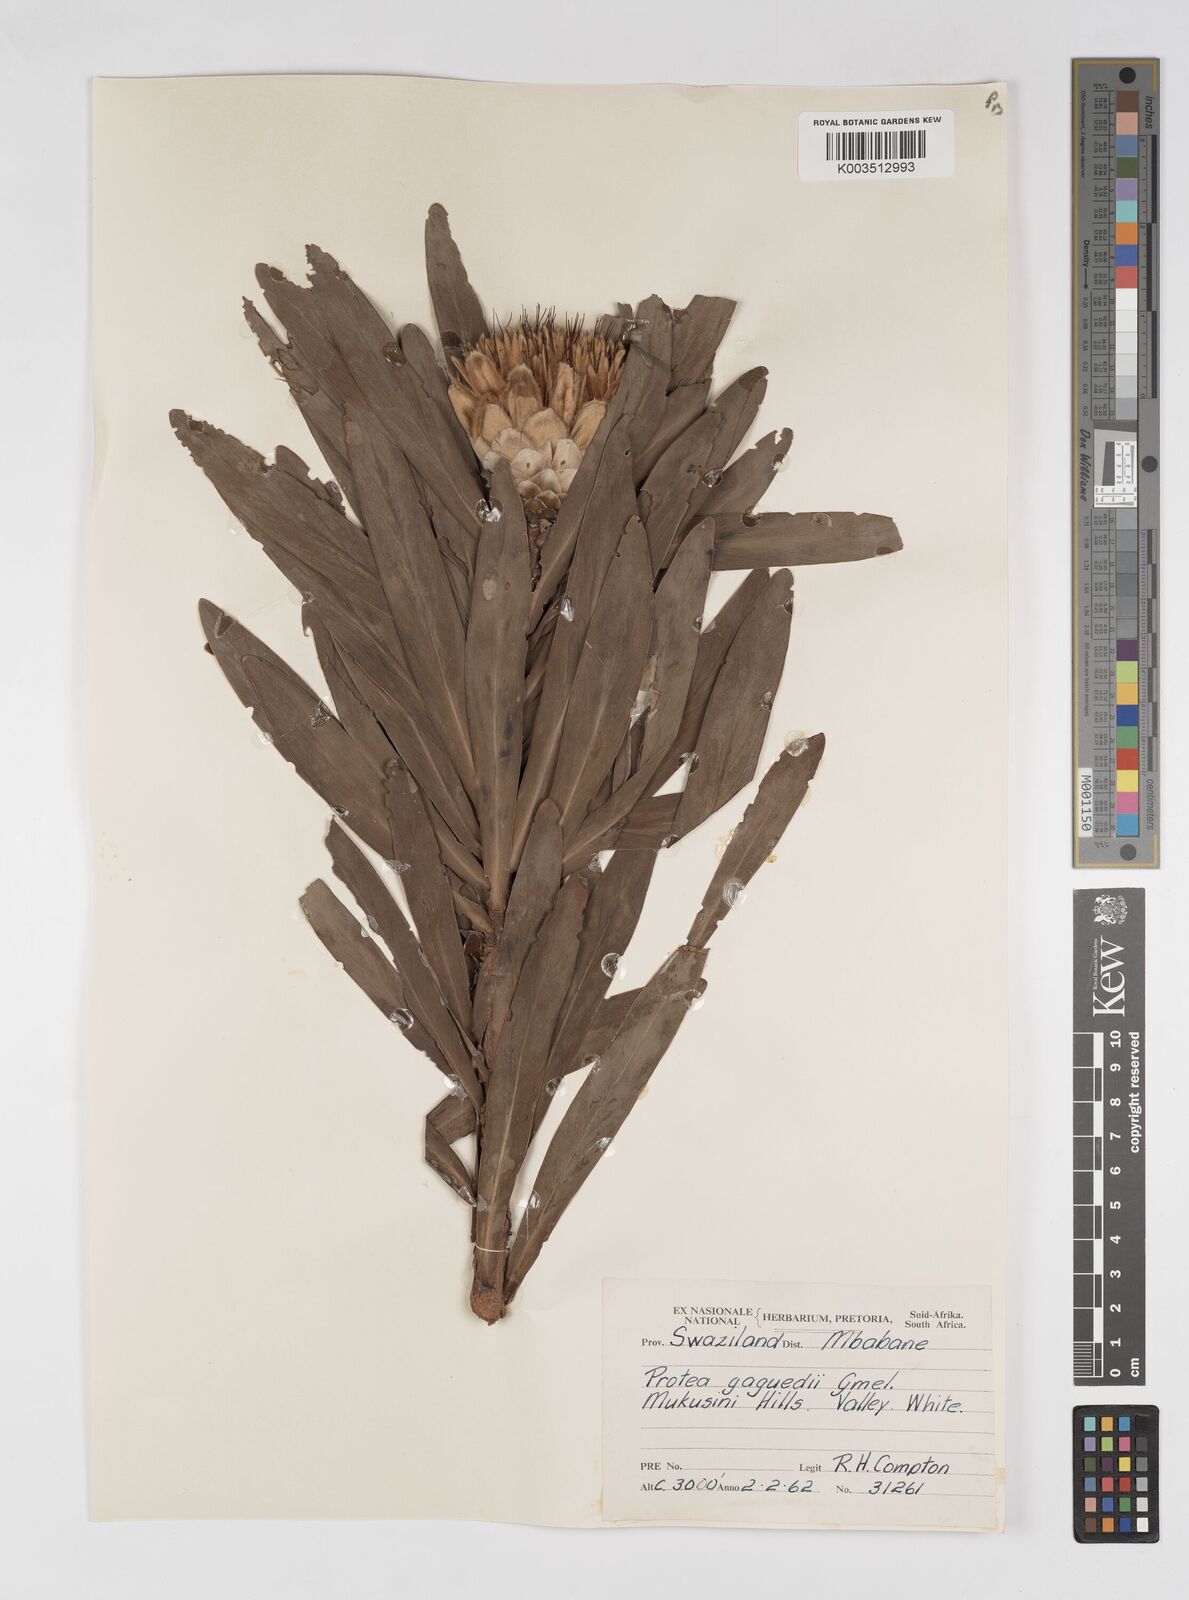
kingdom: Plantae
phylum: Tracheophyta
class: Magnoliopsida
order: Proteales
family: Proteaceae
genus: Protea
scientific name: Protea gaguedi
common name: African protea
